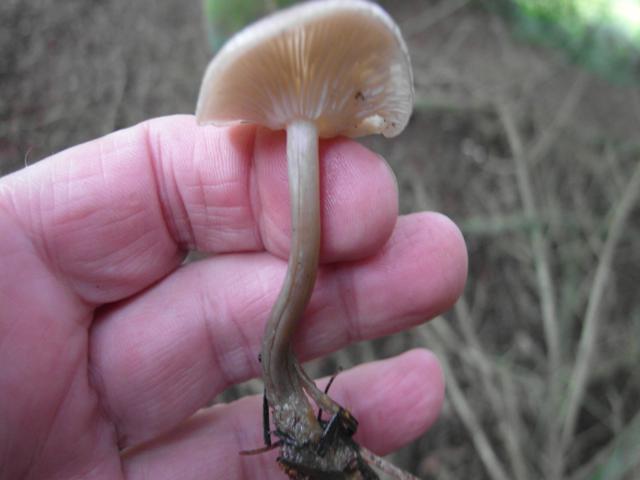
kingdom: Fungi
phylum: Basidiomycota
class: Agaricomycetes
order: Agaricales
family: Tricholomataceae
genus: Clitocybe
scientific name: Clitocybe metachroa
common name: grå tragthat
